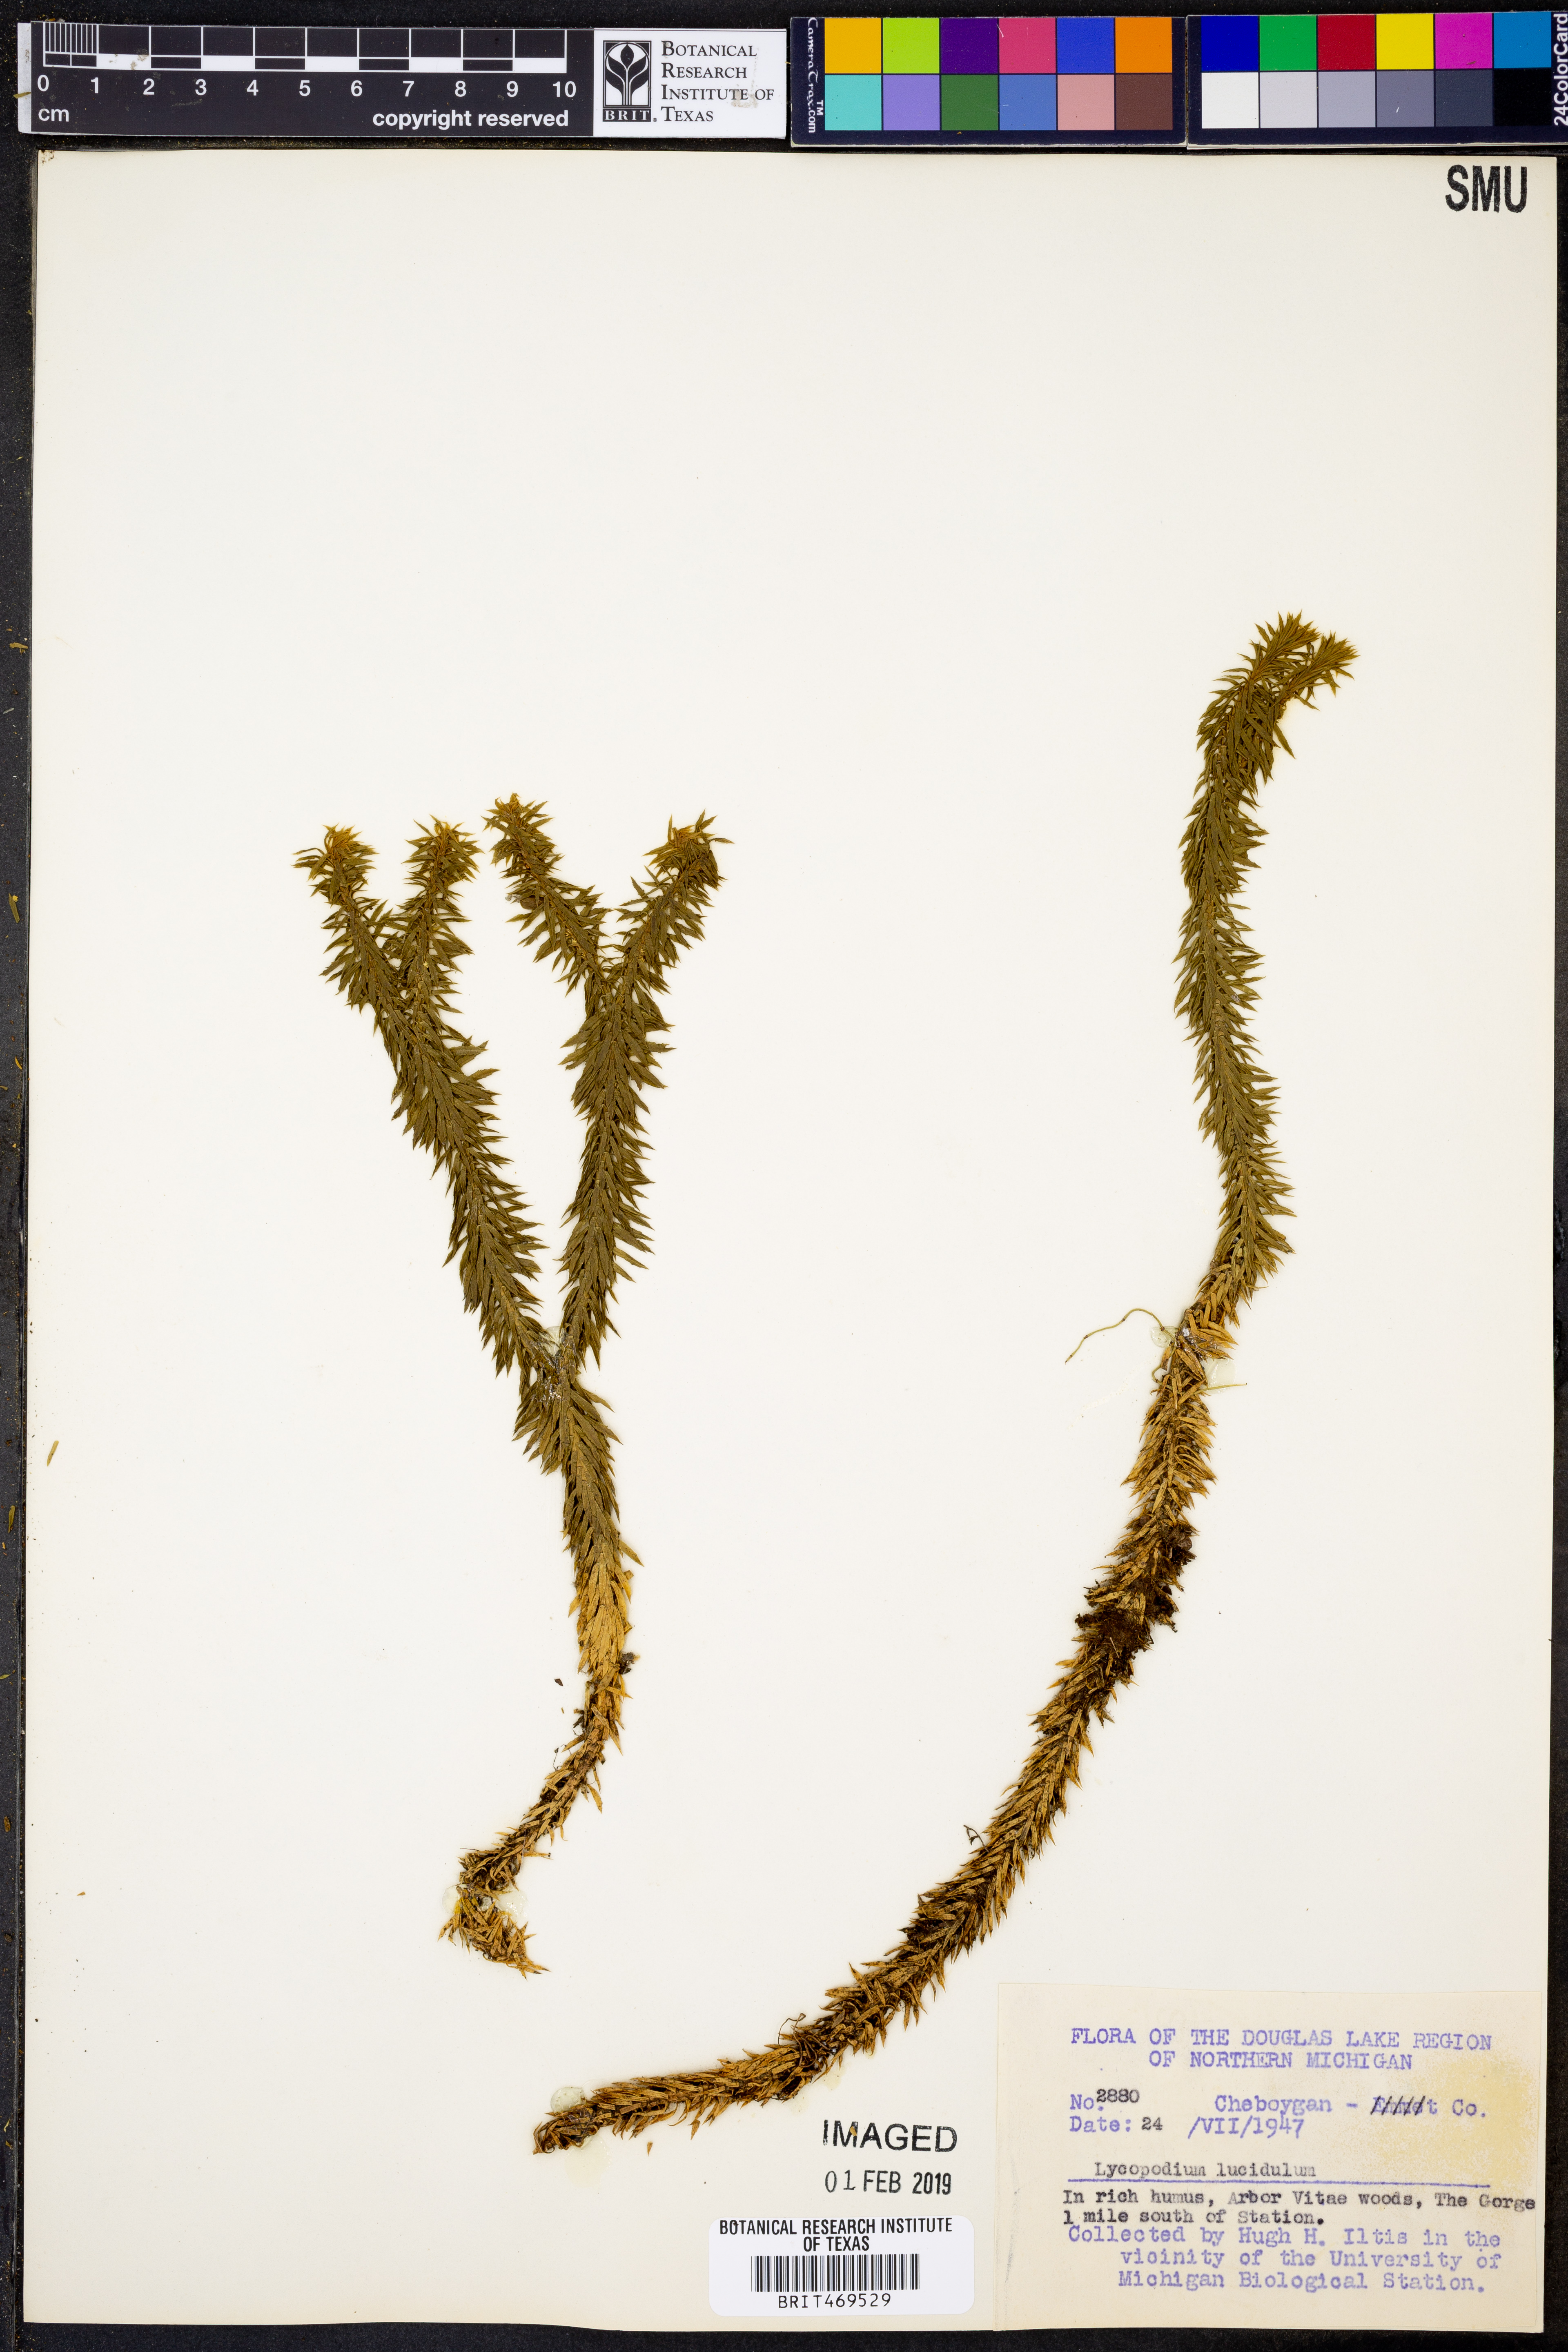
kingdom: Plantae
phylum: Tracheophyta
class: Lycopodiopsida
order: Lycopodiales
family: Lycopodiaceae
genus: Huperzia
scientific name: Huperzia lucidula
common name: Shining clubmoss
